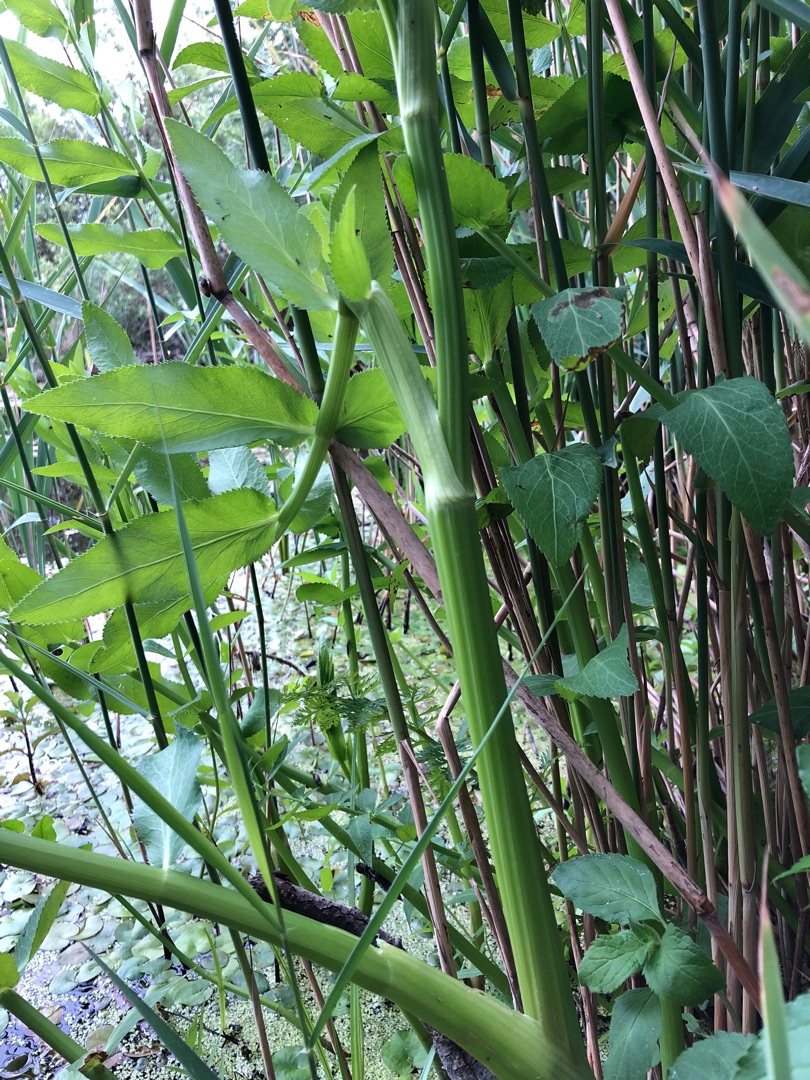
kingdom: Plantae
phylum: Tracheophyta
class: Magnoliopsida
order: Apiales
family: Apiaceae
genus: Sium
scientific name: Sium latifolium
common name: Bredbladet mærke
